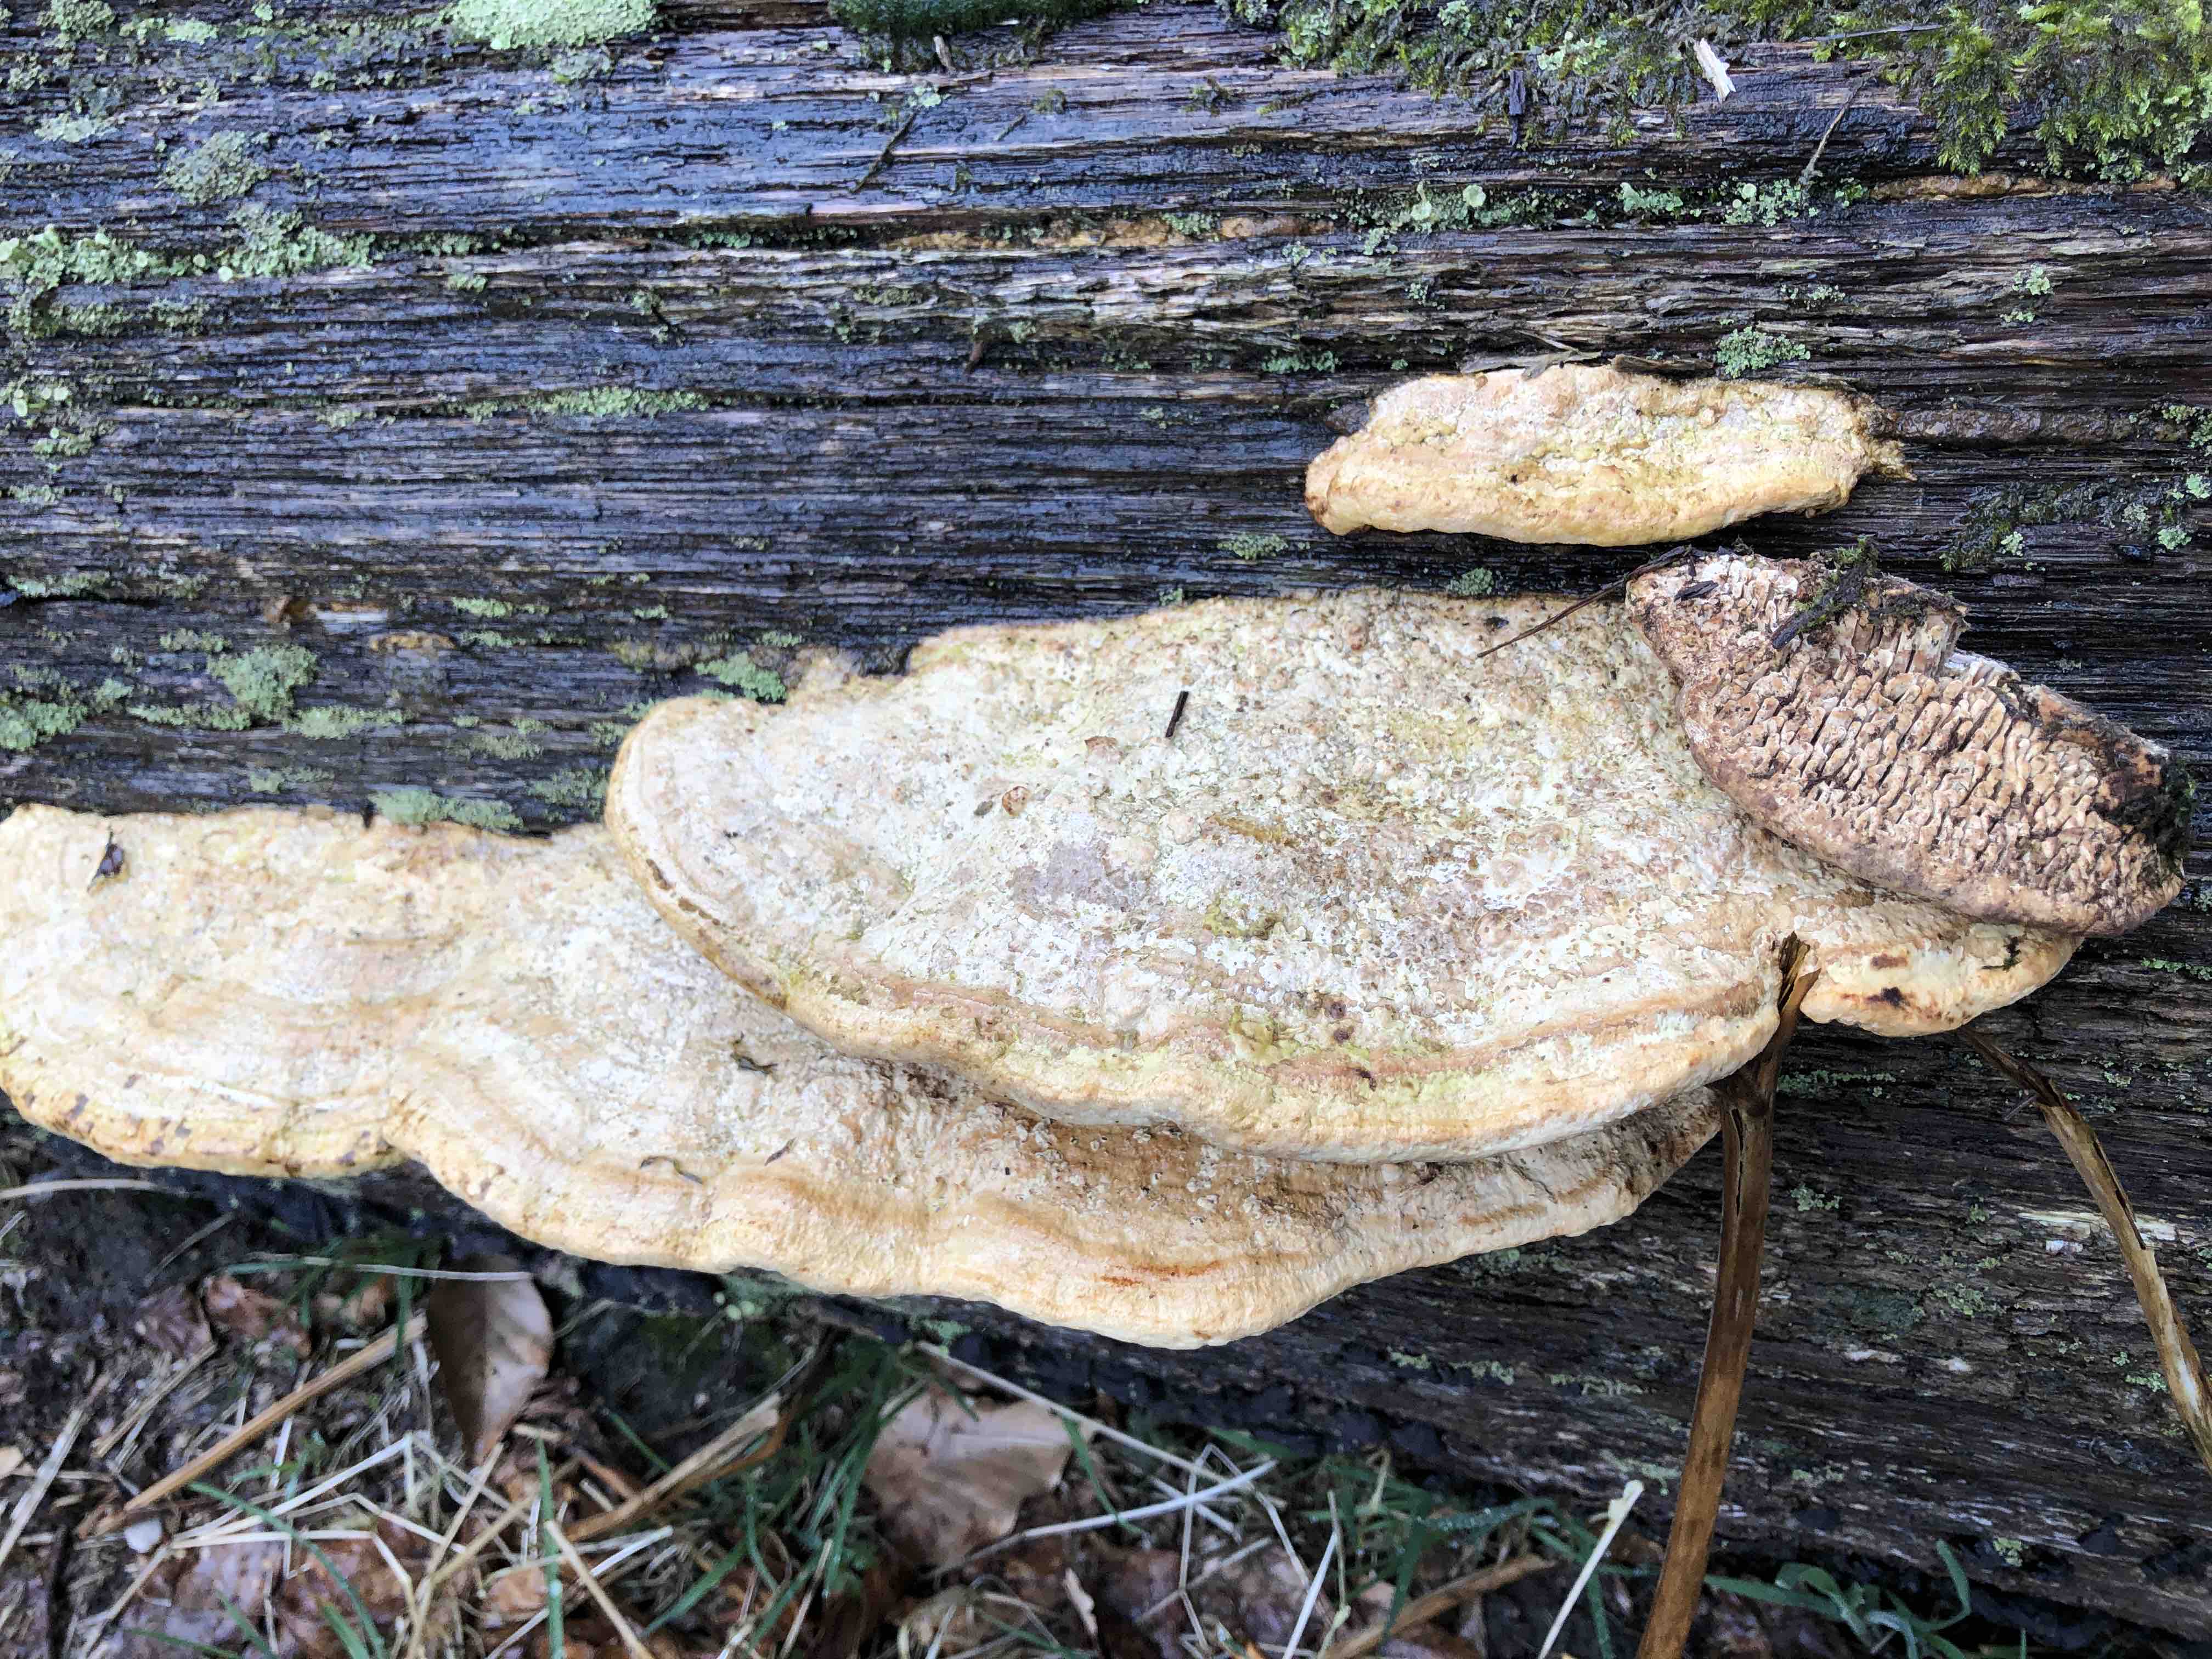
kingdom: Fungi
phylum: Basidiomycota
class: Agaricomycetes
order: Polyporales
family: Fomitopsidaceae
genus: Daedalea
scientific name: Daedalea quercina
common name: ege-labyrintsvamp
